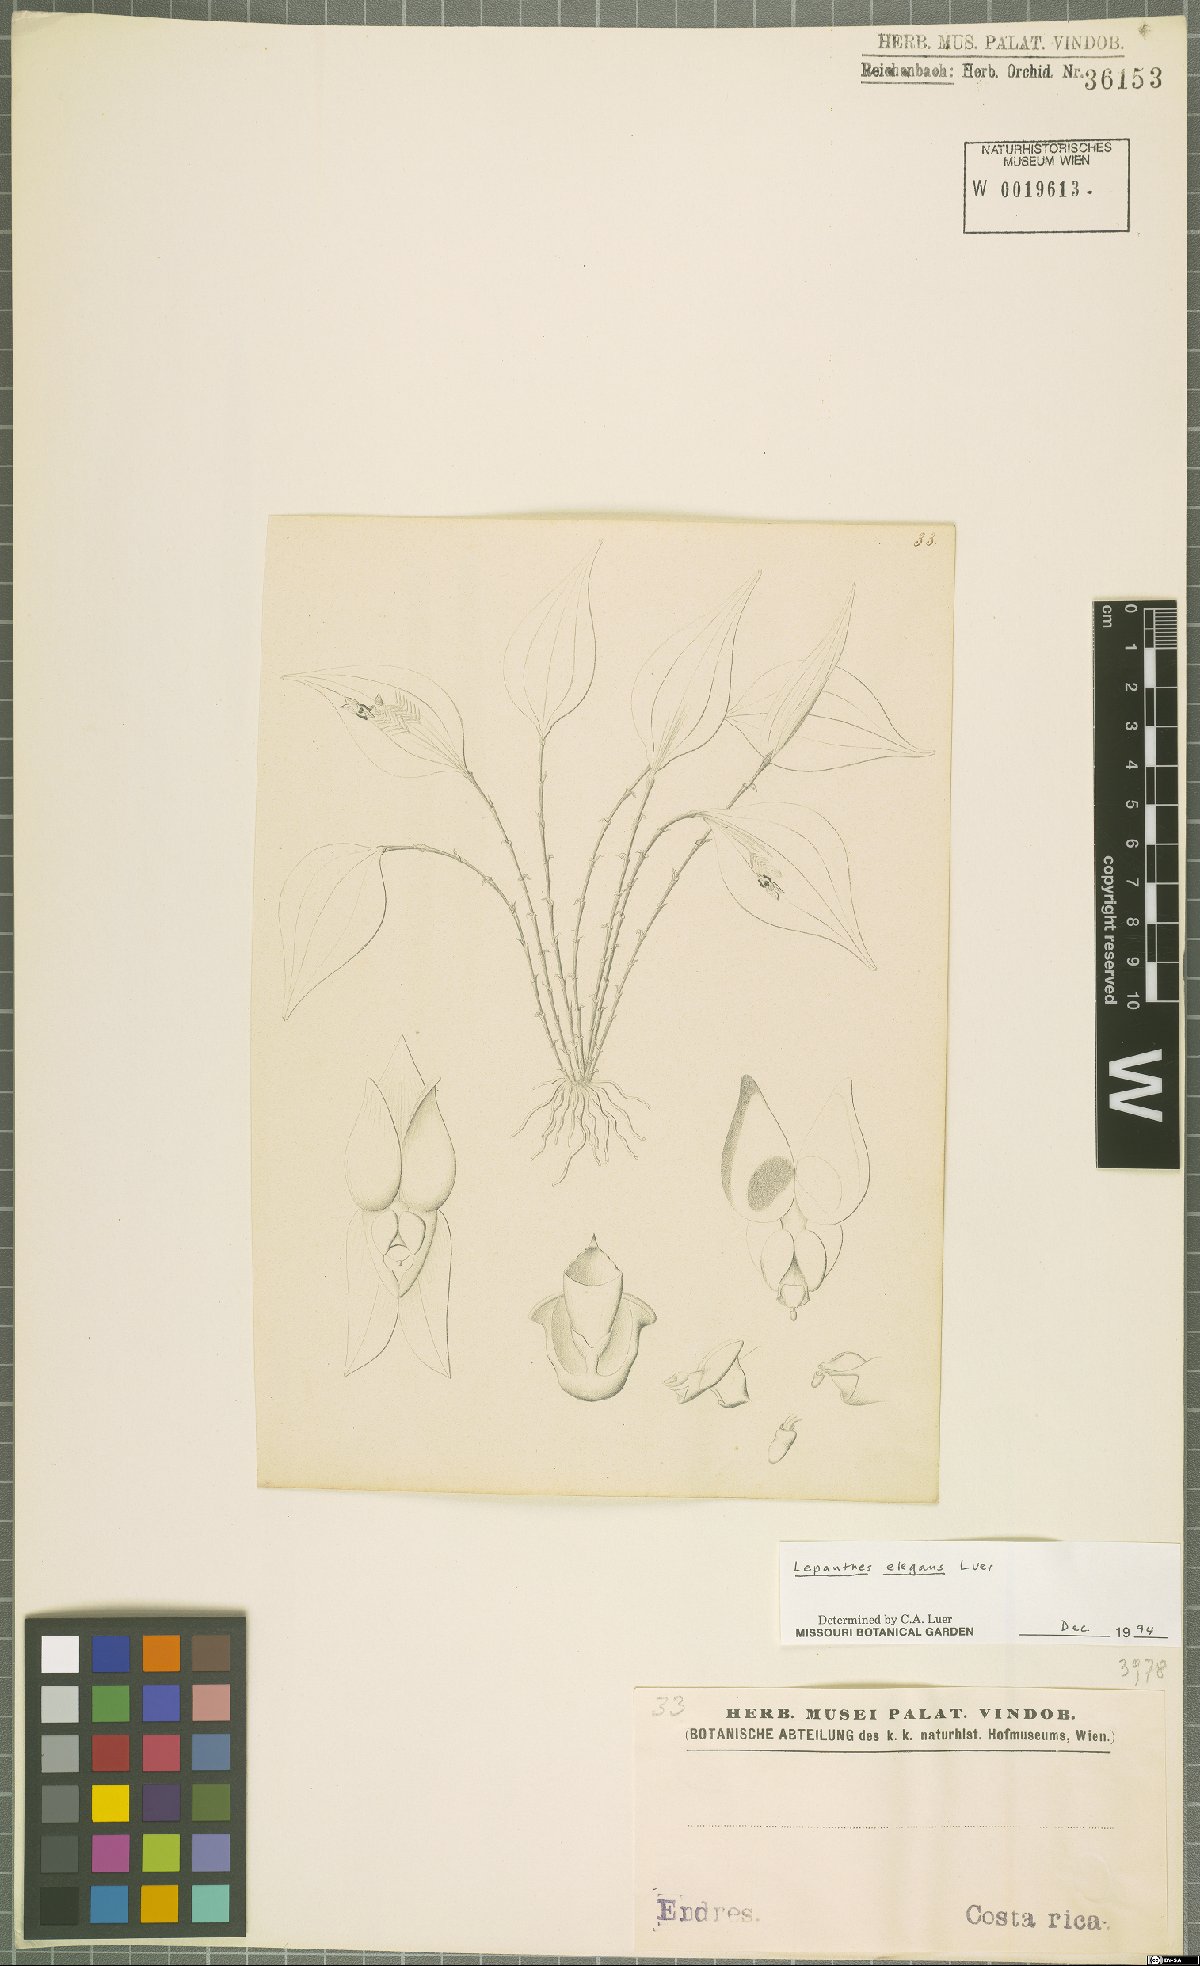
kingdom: Plantae
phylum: Tracheophyta
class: Liliopsida
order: Asparagales
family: Orchidaceae
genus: Lepanthes
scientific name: Lepanthes elegans
